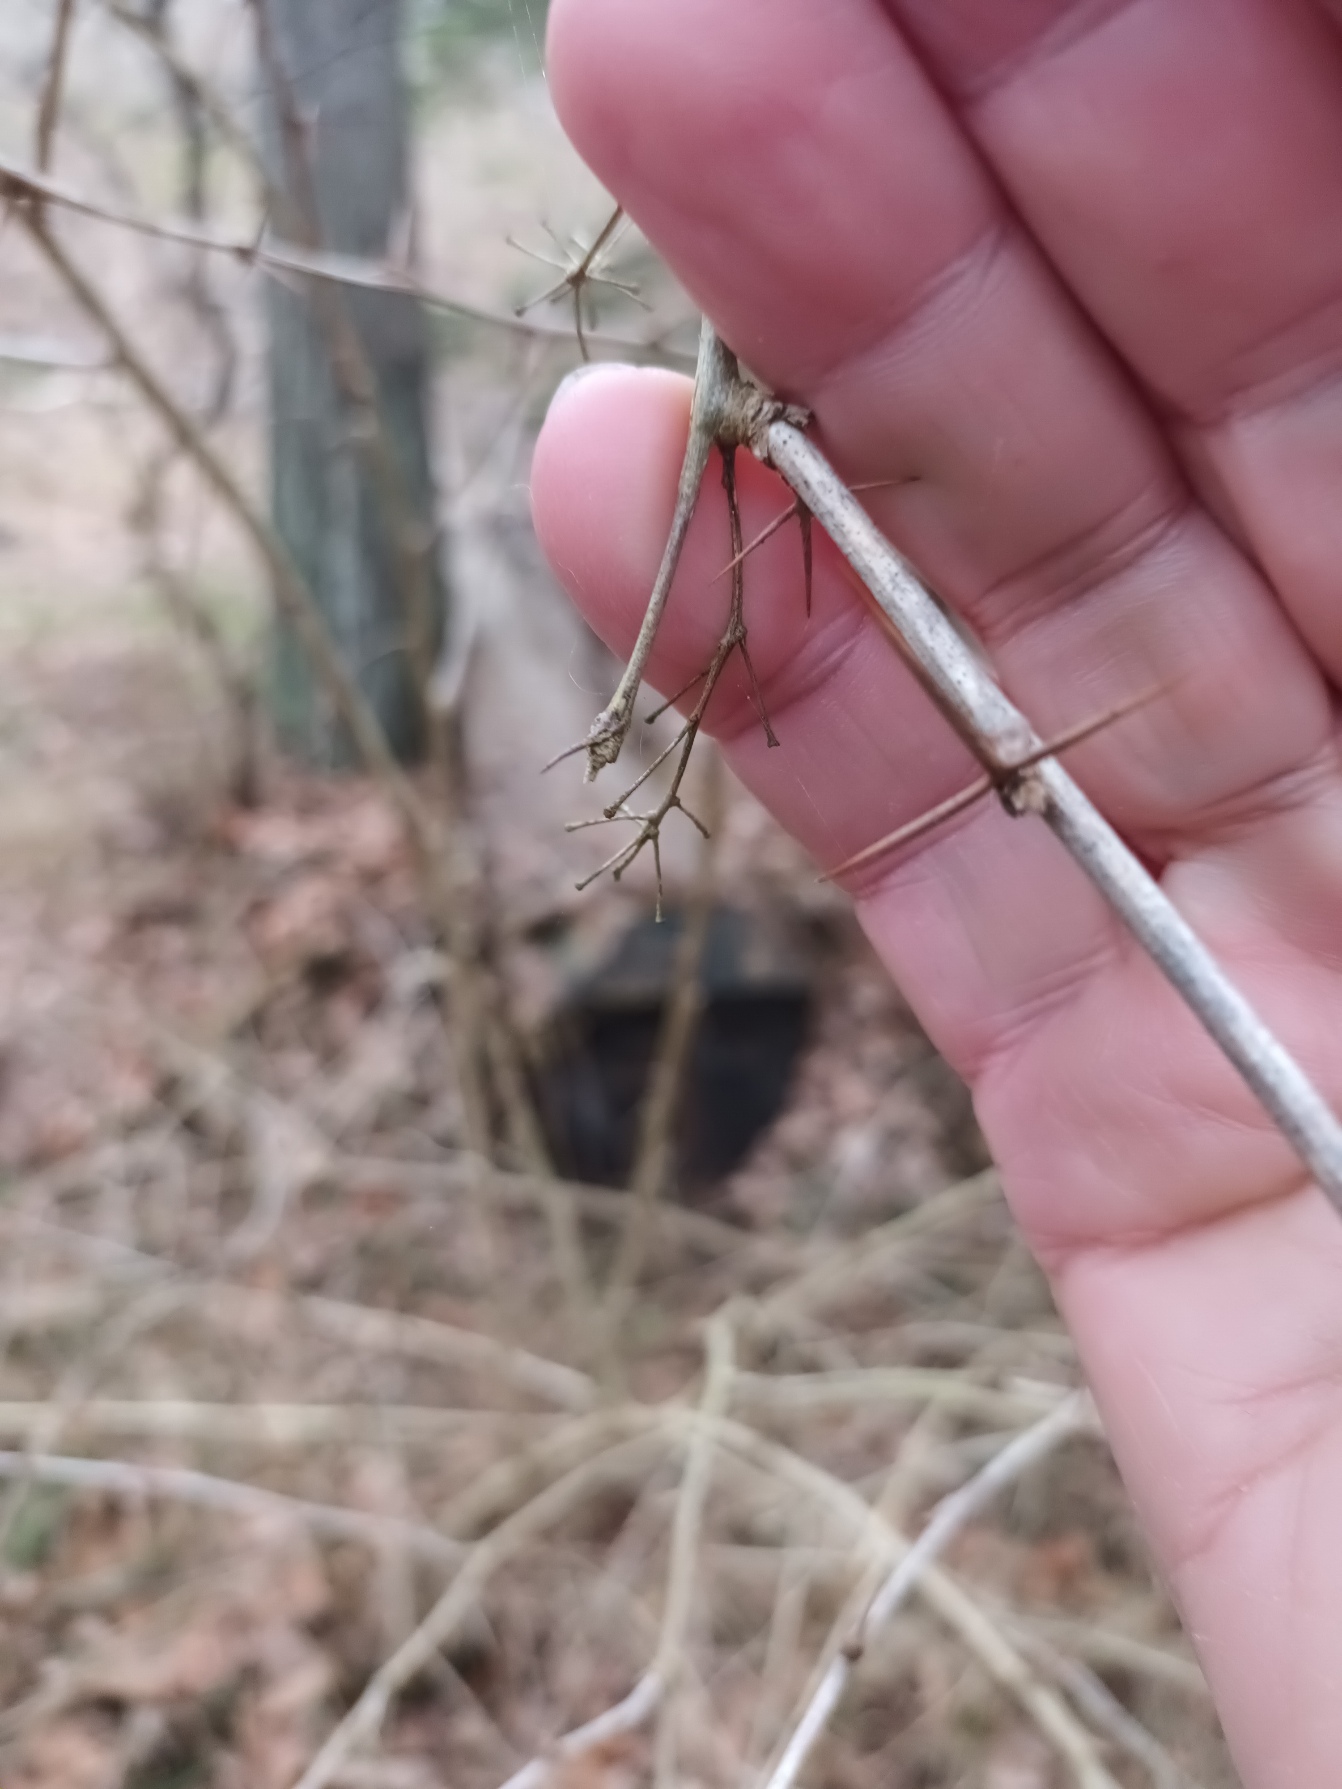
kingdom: Plantae
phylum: Tracheophyta
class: Magnoliopsida
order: Ranunculales
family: Berberidaceae
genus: Berberis
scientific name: Berberis vulgaris
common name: Almindelig berberis
